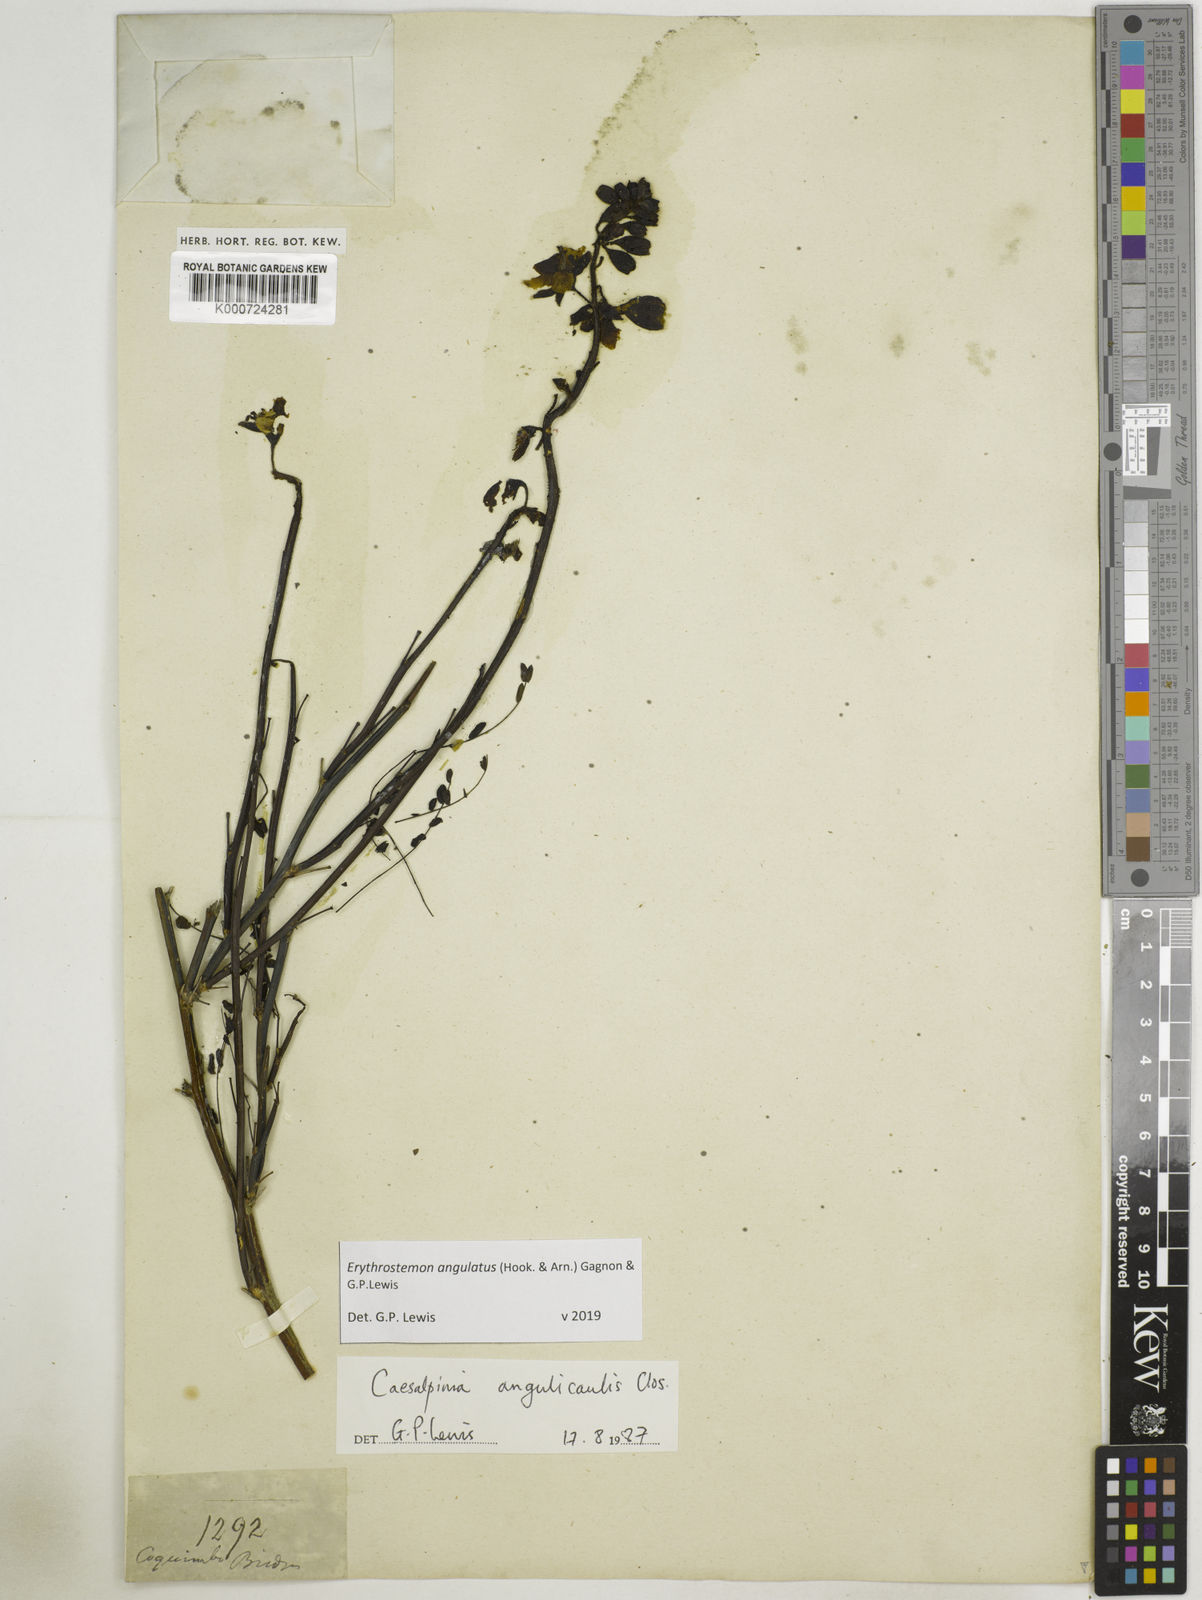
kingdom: Plantae
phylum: Tracheophyta
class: Magnoliopsida
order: Fabales
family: Fabaceae
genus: Caesalpinia
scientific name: Caesalpinia
